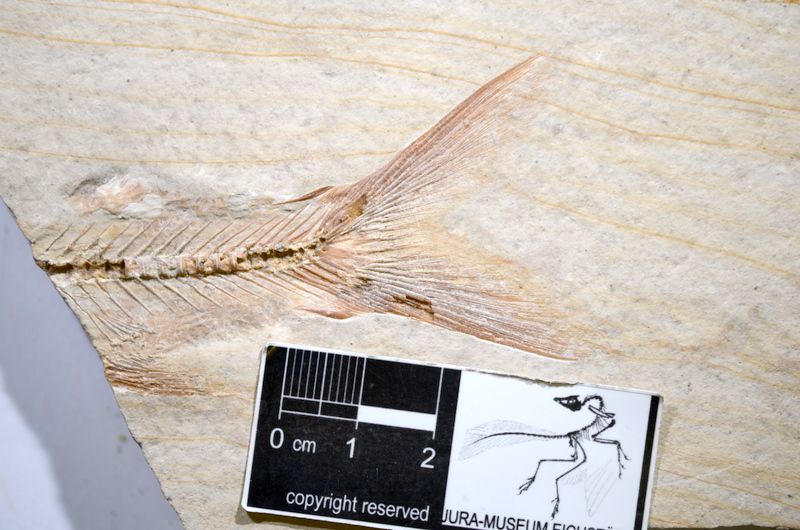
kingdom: Animalia
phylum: Chordata
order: Elopiformes
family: Anaethalionidae
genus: Anaethalion
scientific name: Anaethalion angustissimus
